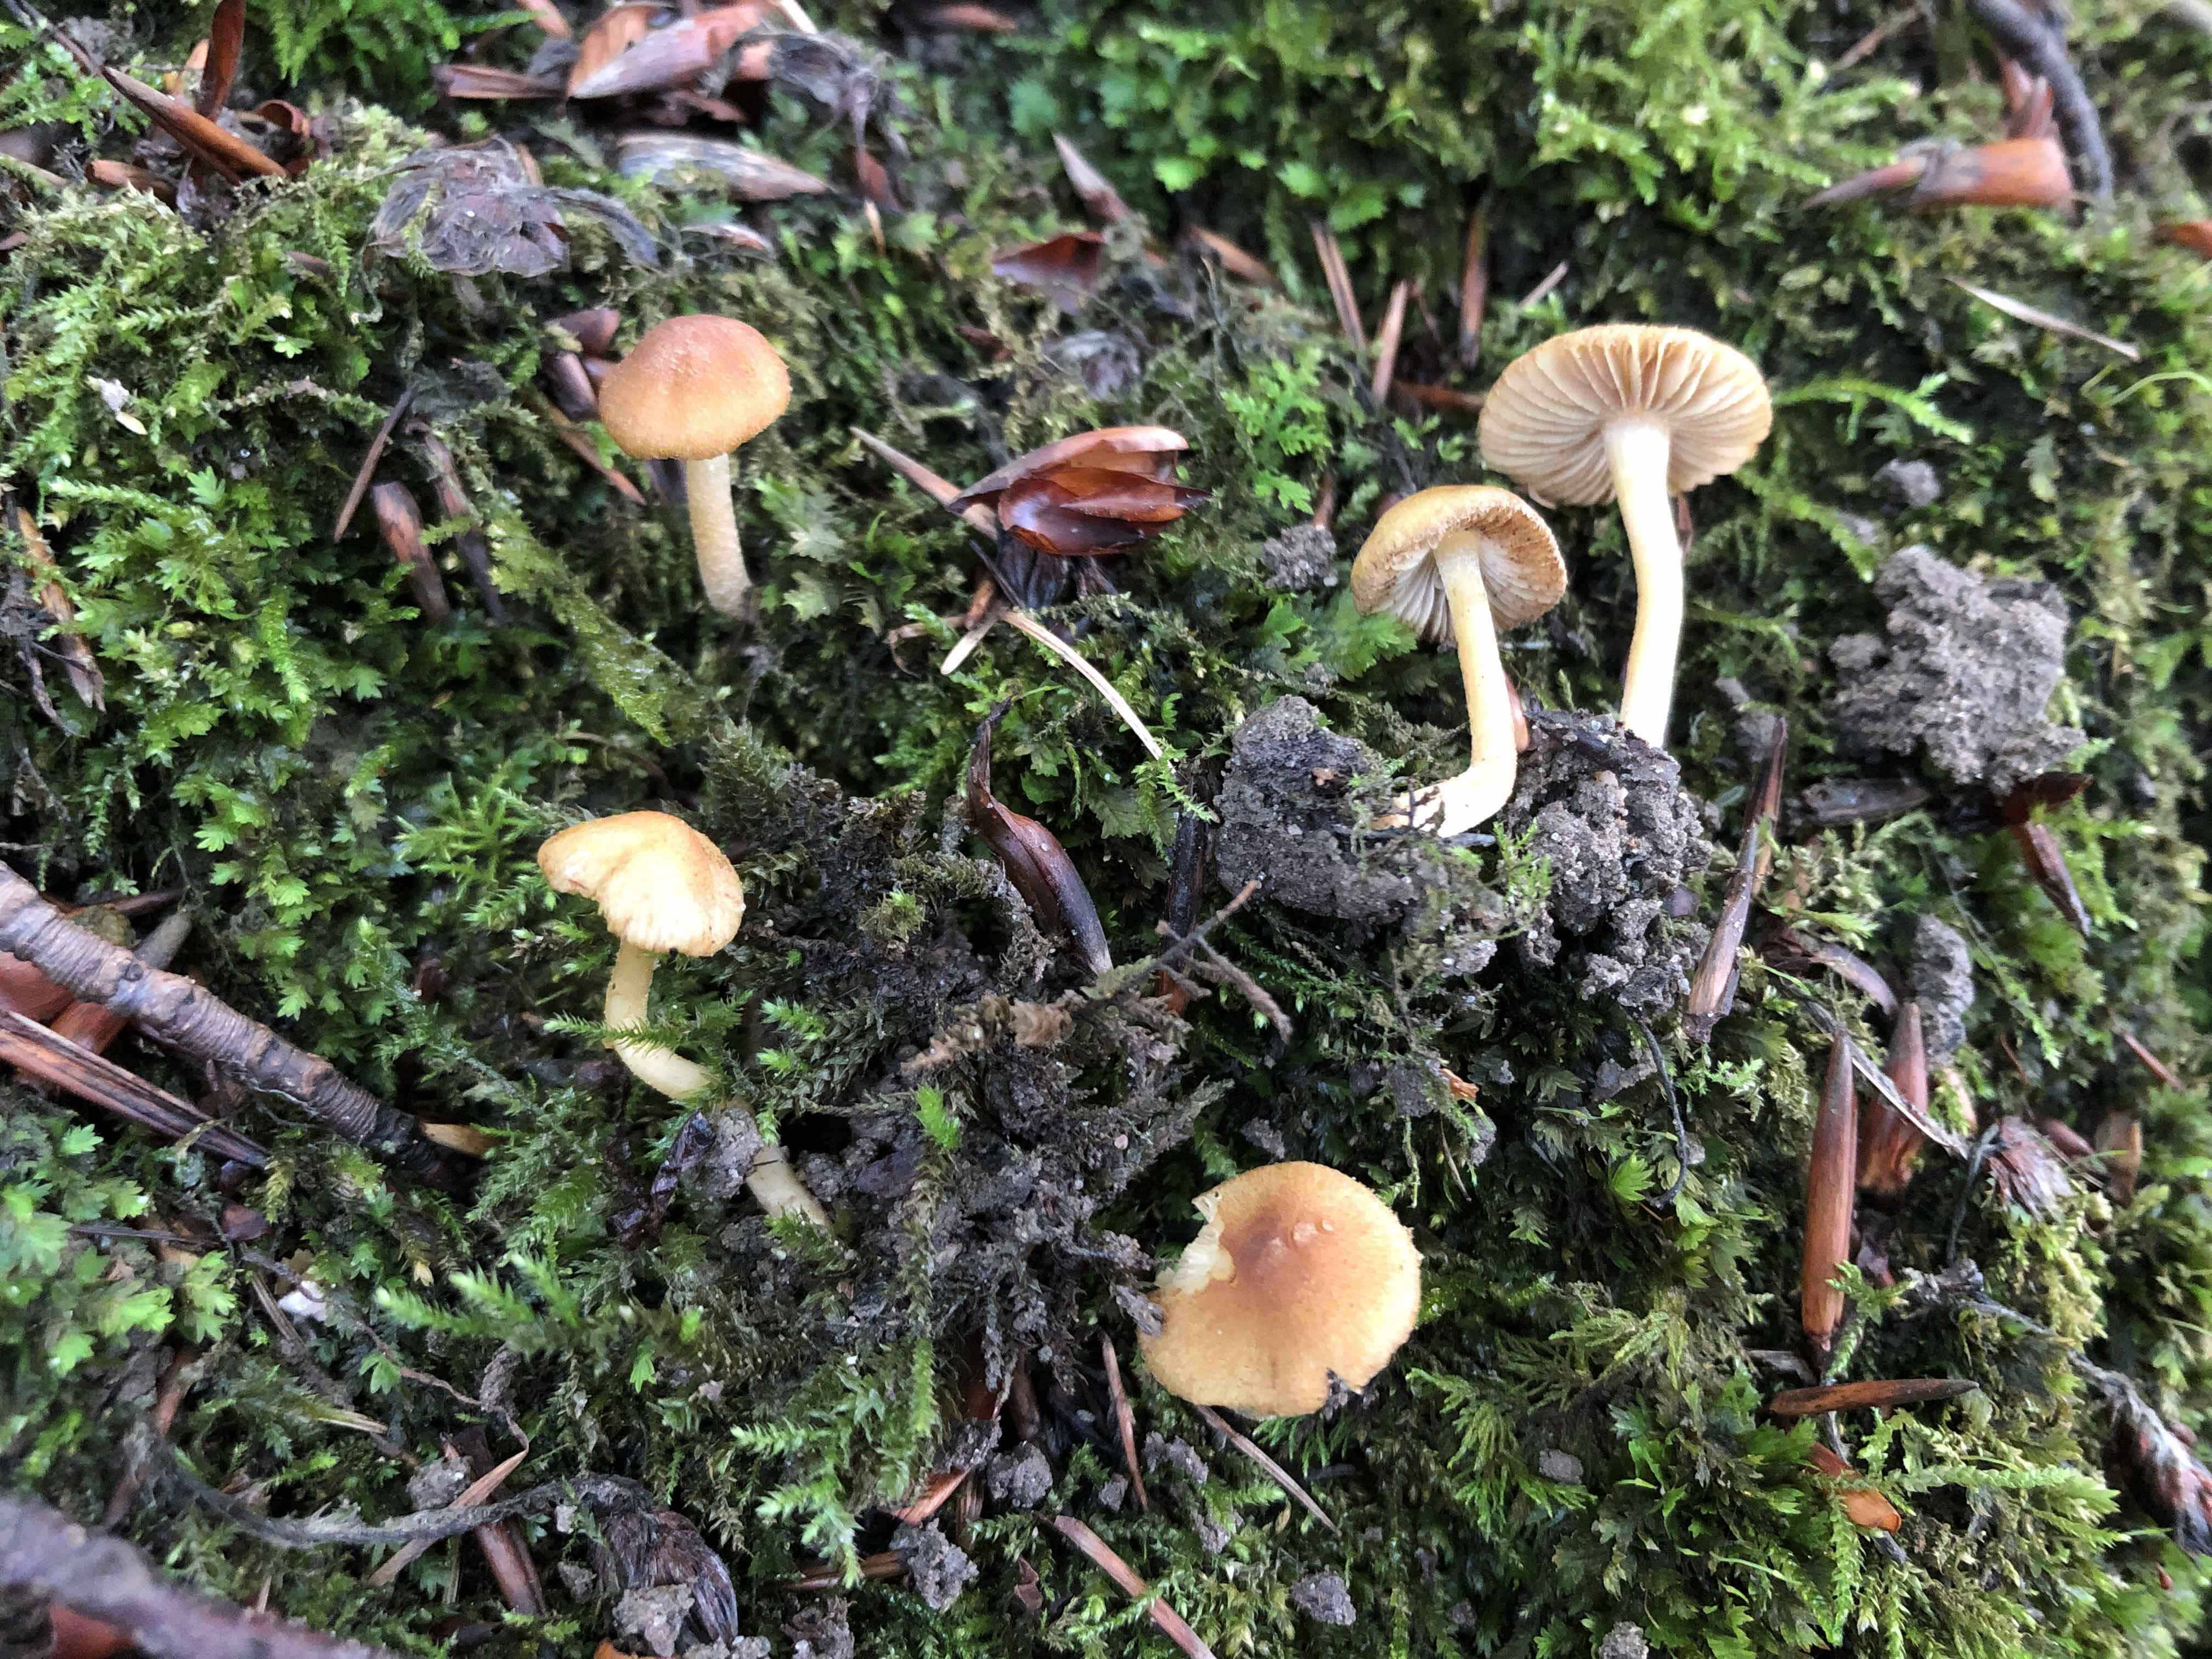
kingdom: Fungi
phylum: Basidiomycota
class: Agaricomycetes
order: Agaricales
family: Inocybaceae
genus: Inocybe
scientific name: Inocybe orioli
